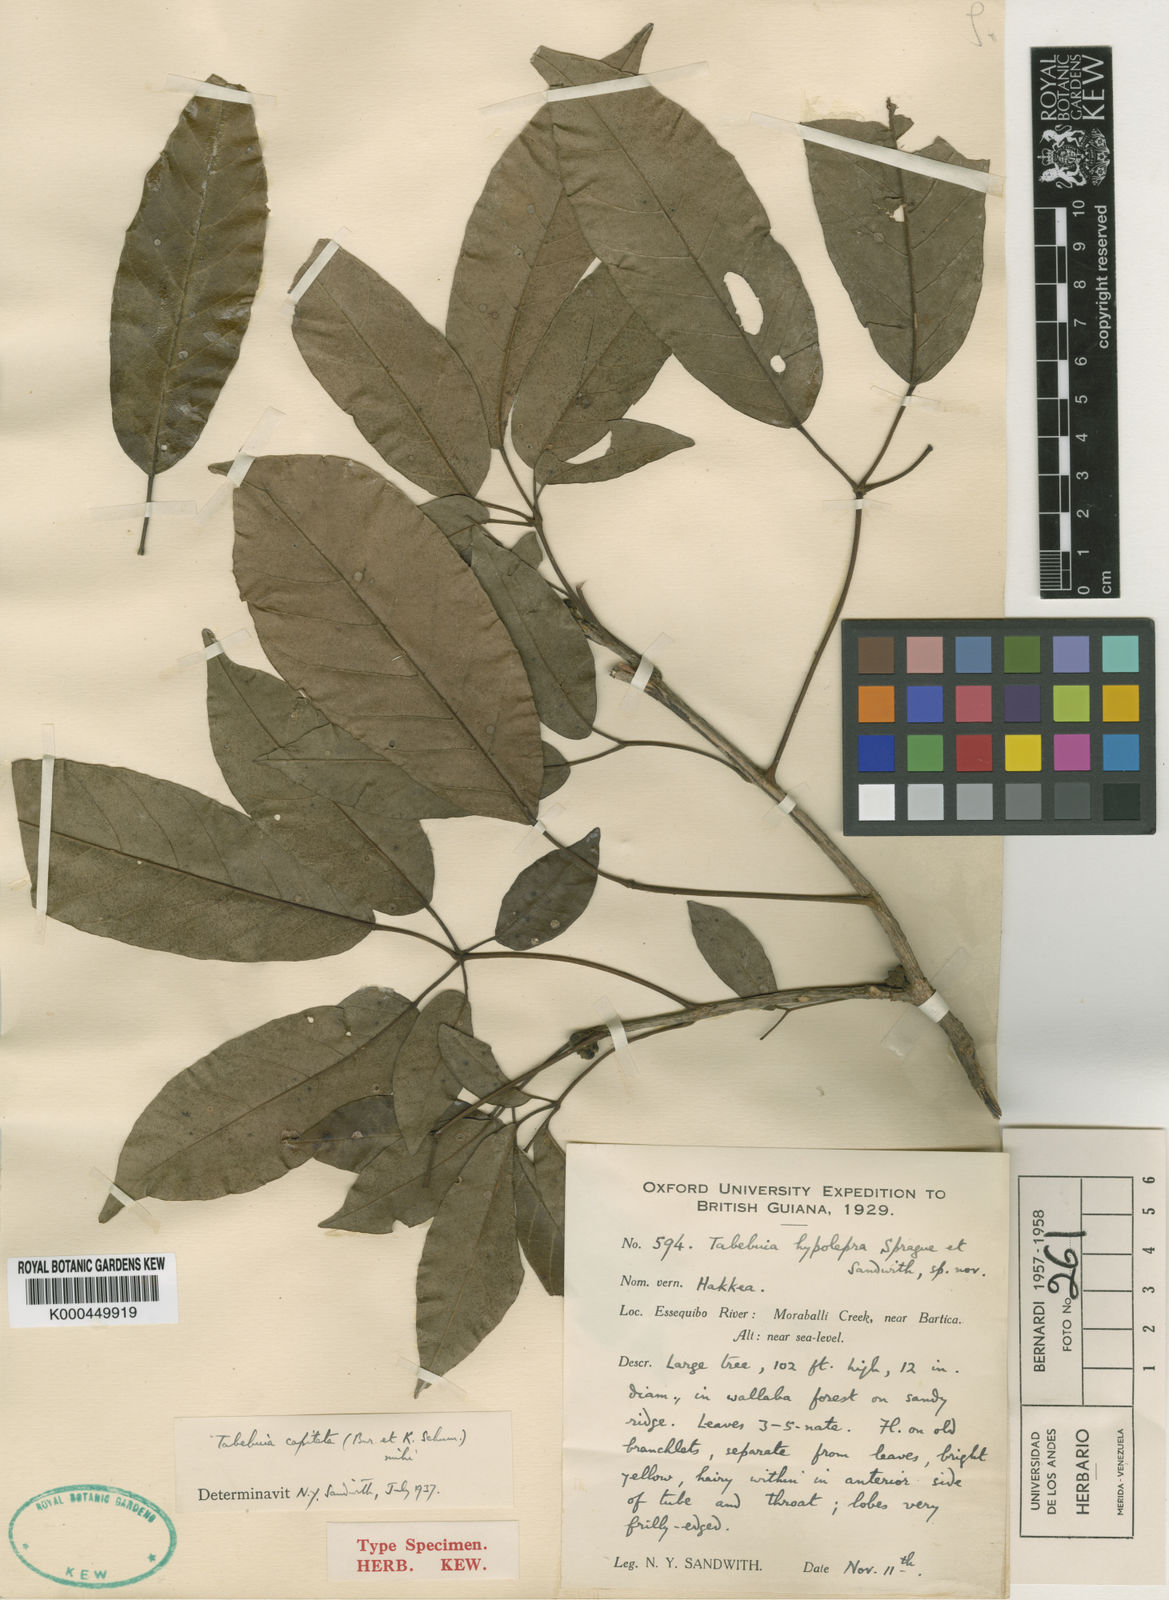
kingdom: Plantae
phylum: Tracheophyta
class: Magnoliopsida
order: Lamiales
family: Bignoniaceae
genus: Handroanthus
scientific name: Handroanthus capitatus
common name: Trumpet trees
